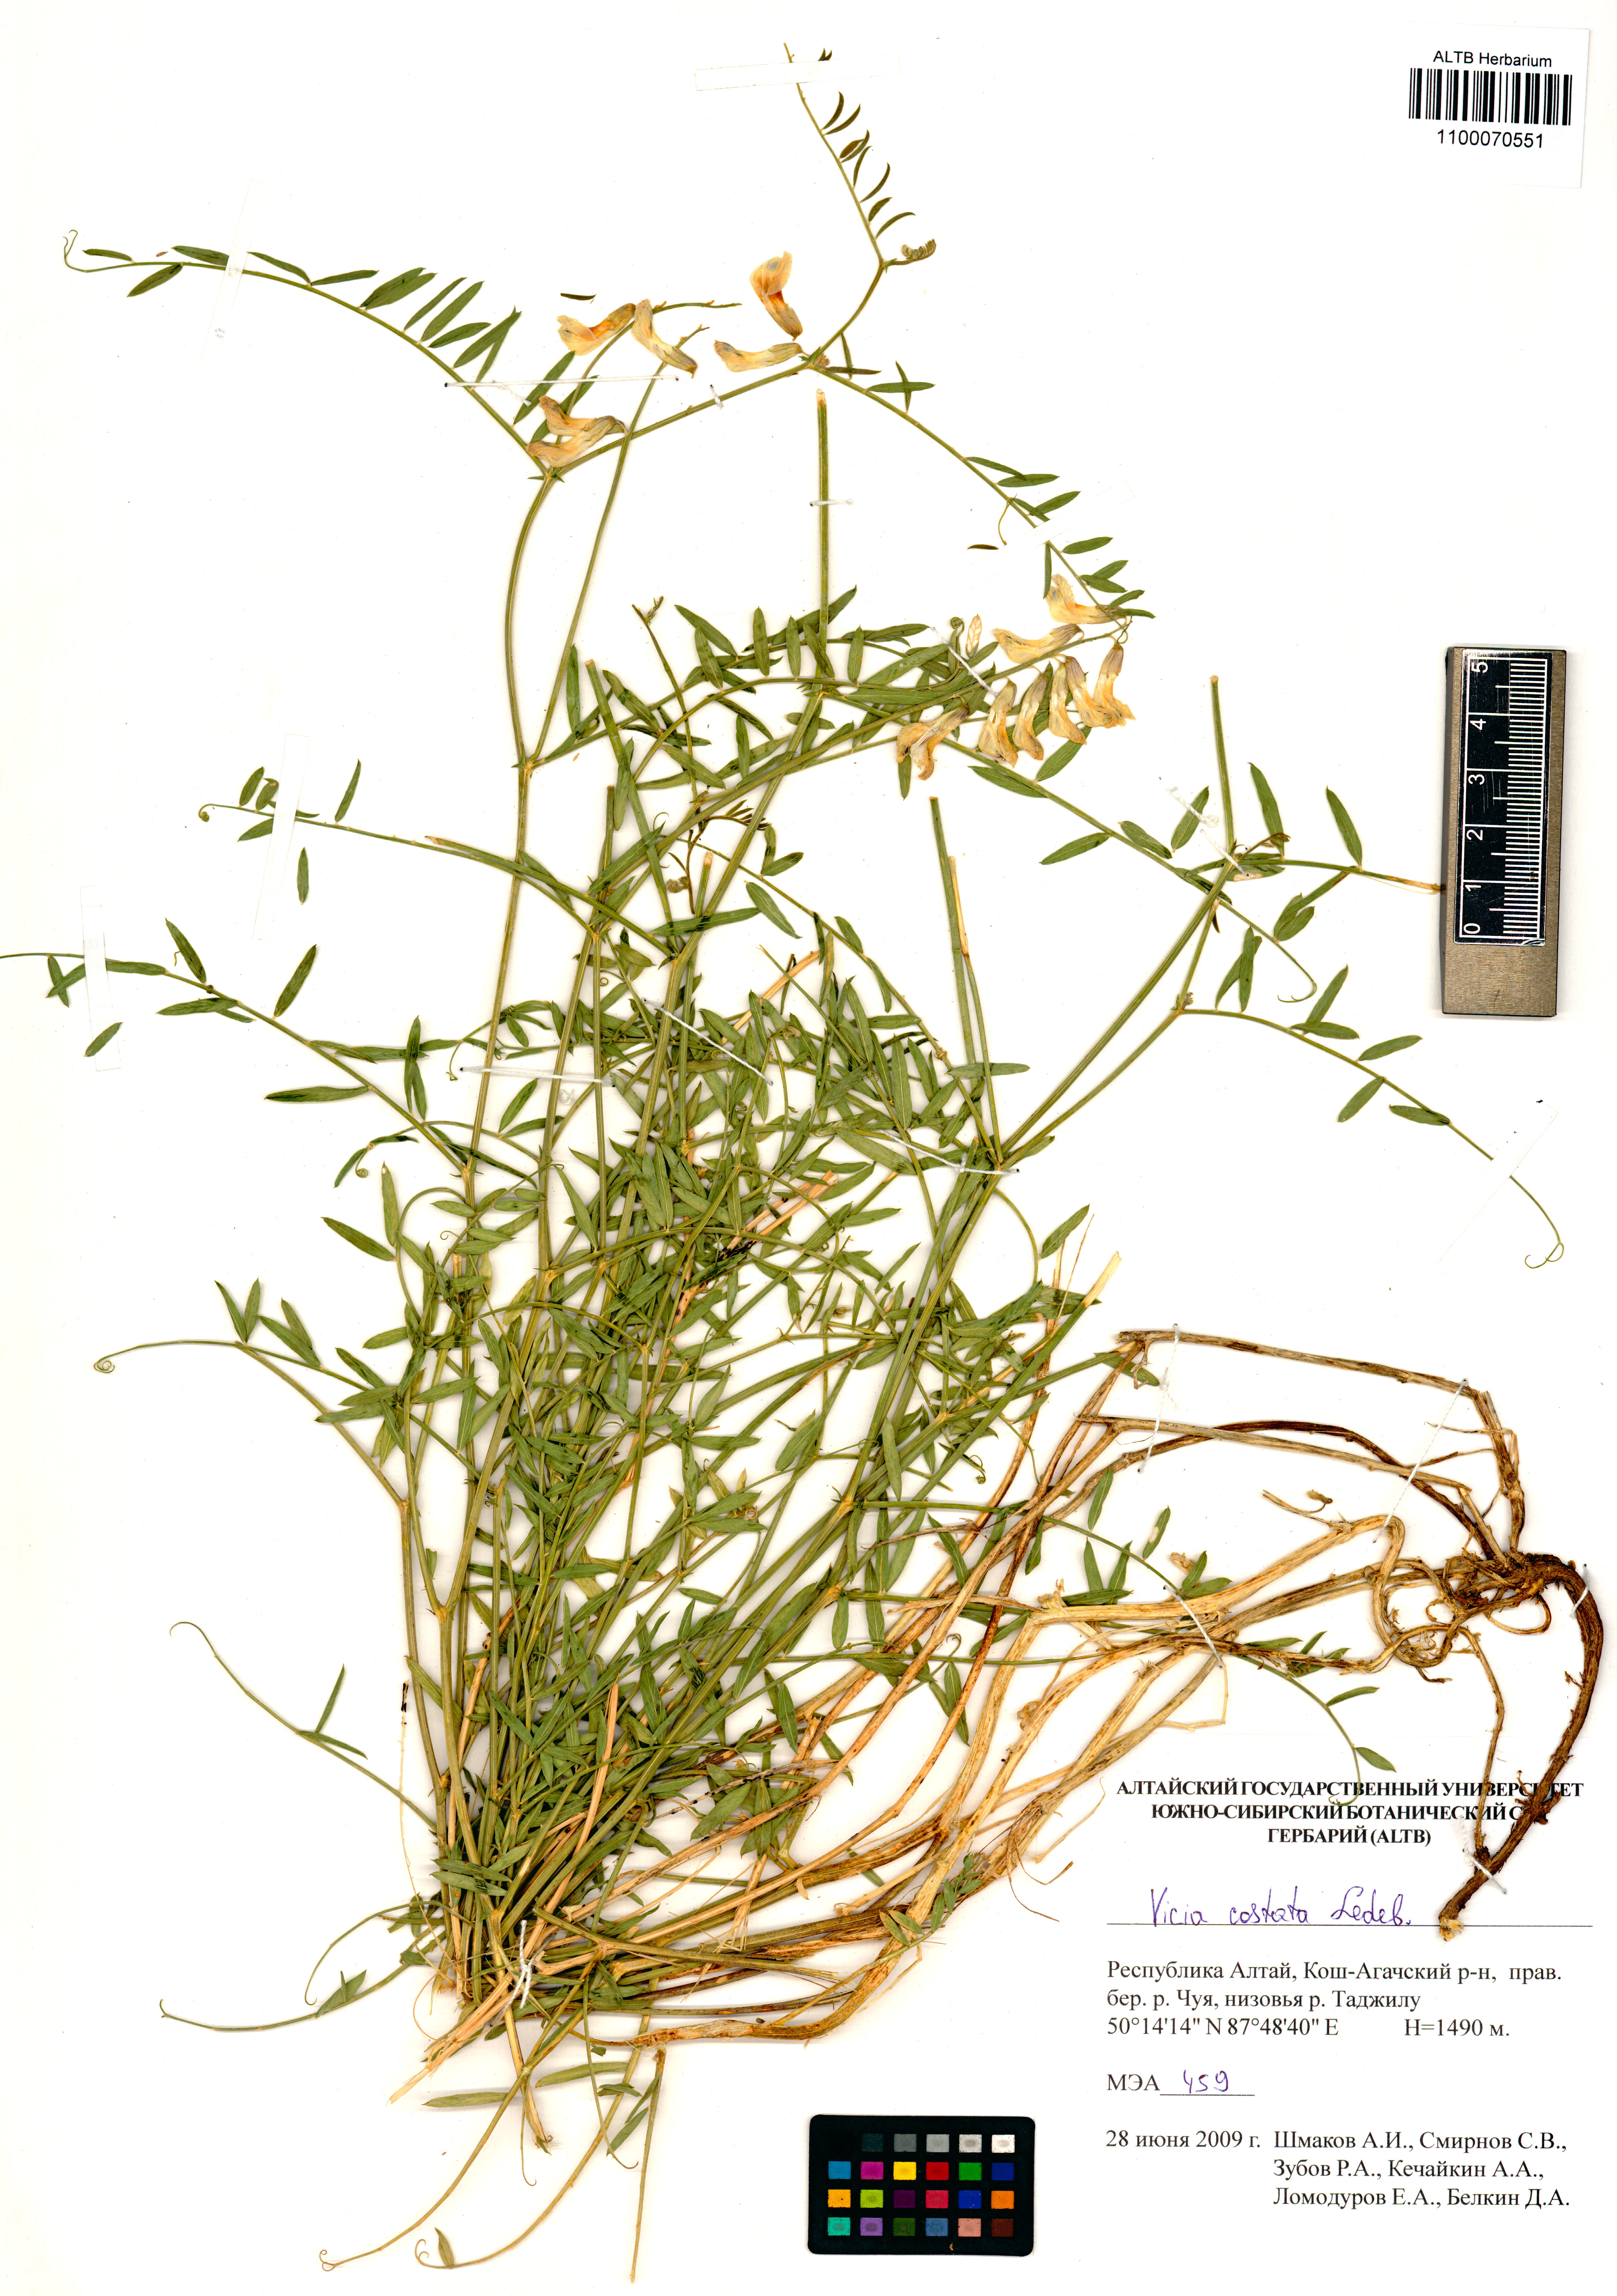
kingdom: Plantae
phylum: Tracheophyta
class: Magnoliopsida
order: Fabales
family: Fabaceae
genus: Vicia
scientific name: Vicia costata
